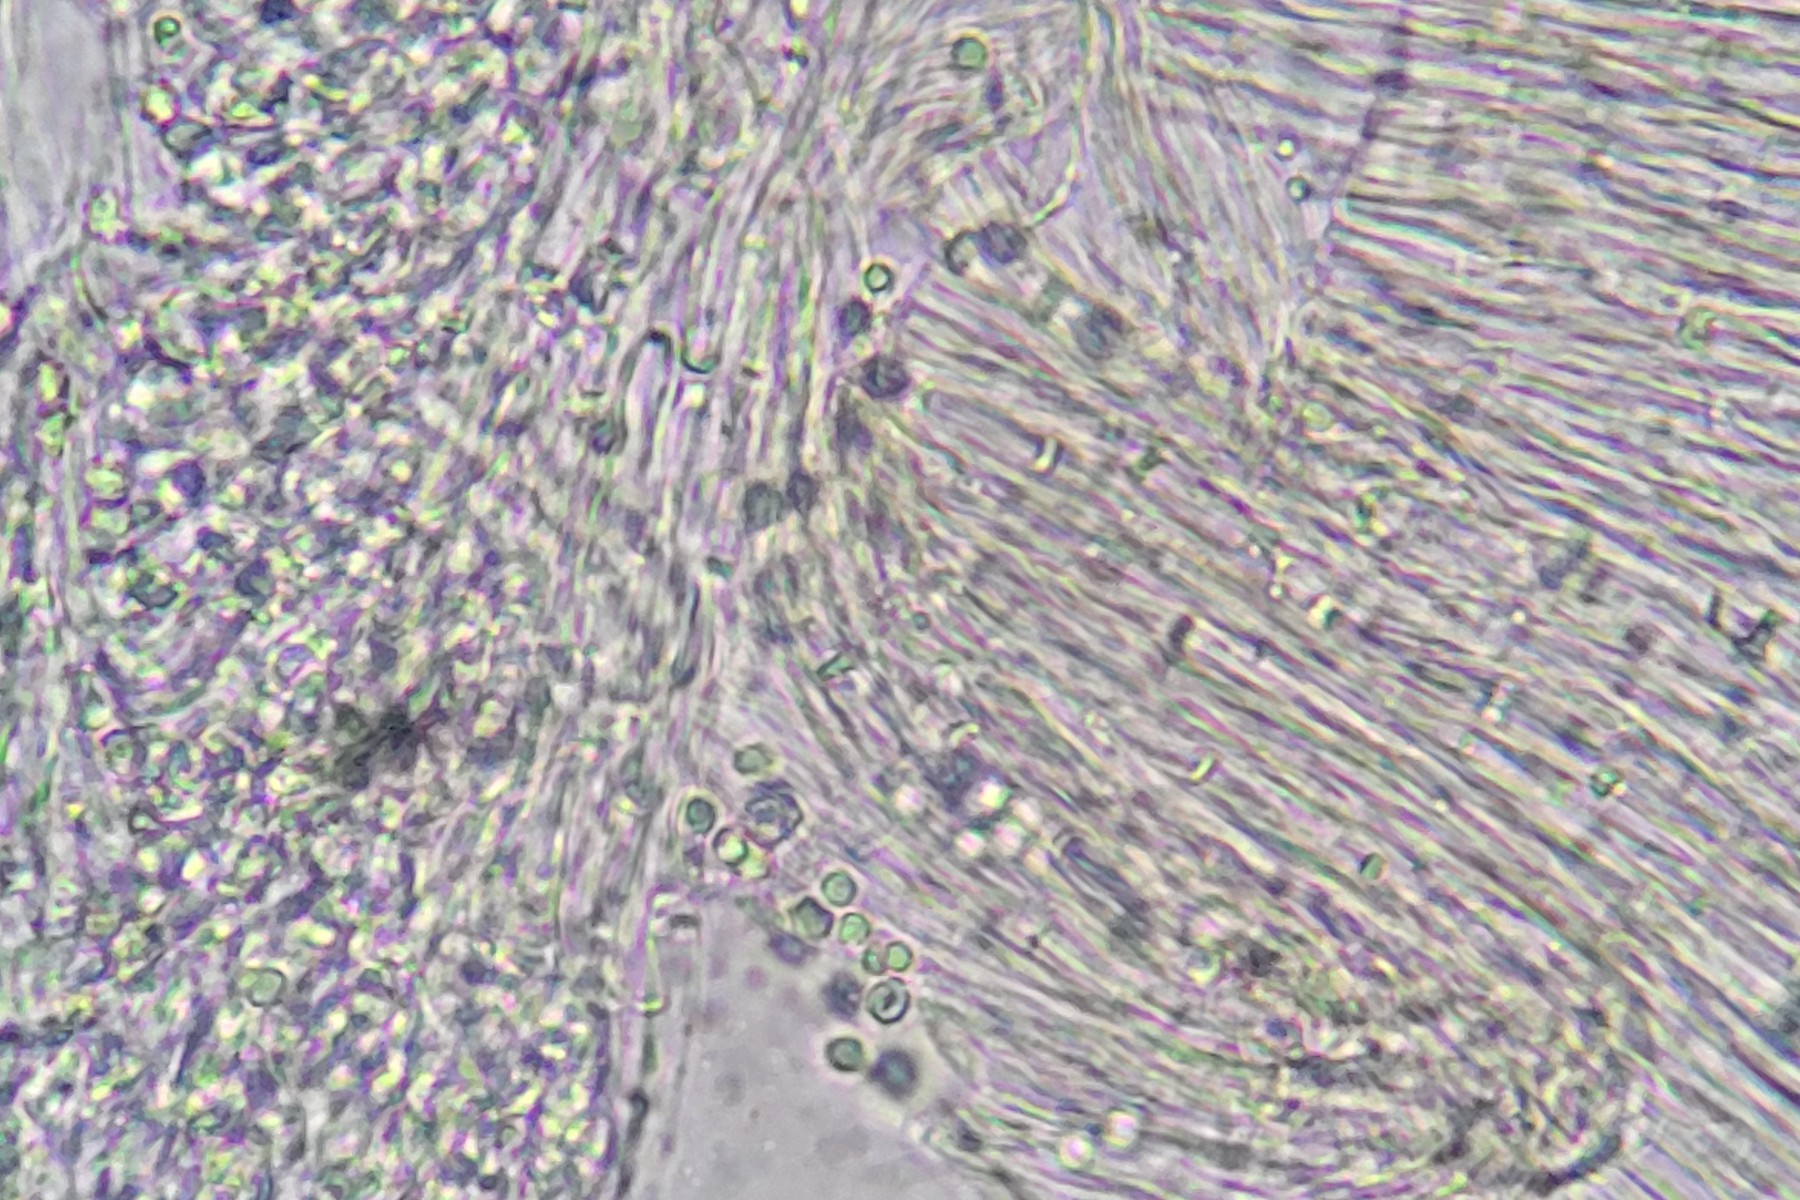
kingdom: Fungi
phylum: Basidiomycota
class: Agaricomycetes
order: Thelephorales
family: Thelephoraceae
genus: Phellodon
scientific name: Phellodon fuligineoalbus
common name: pjusket duftpigsvamp
